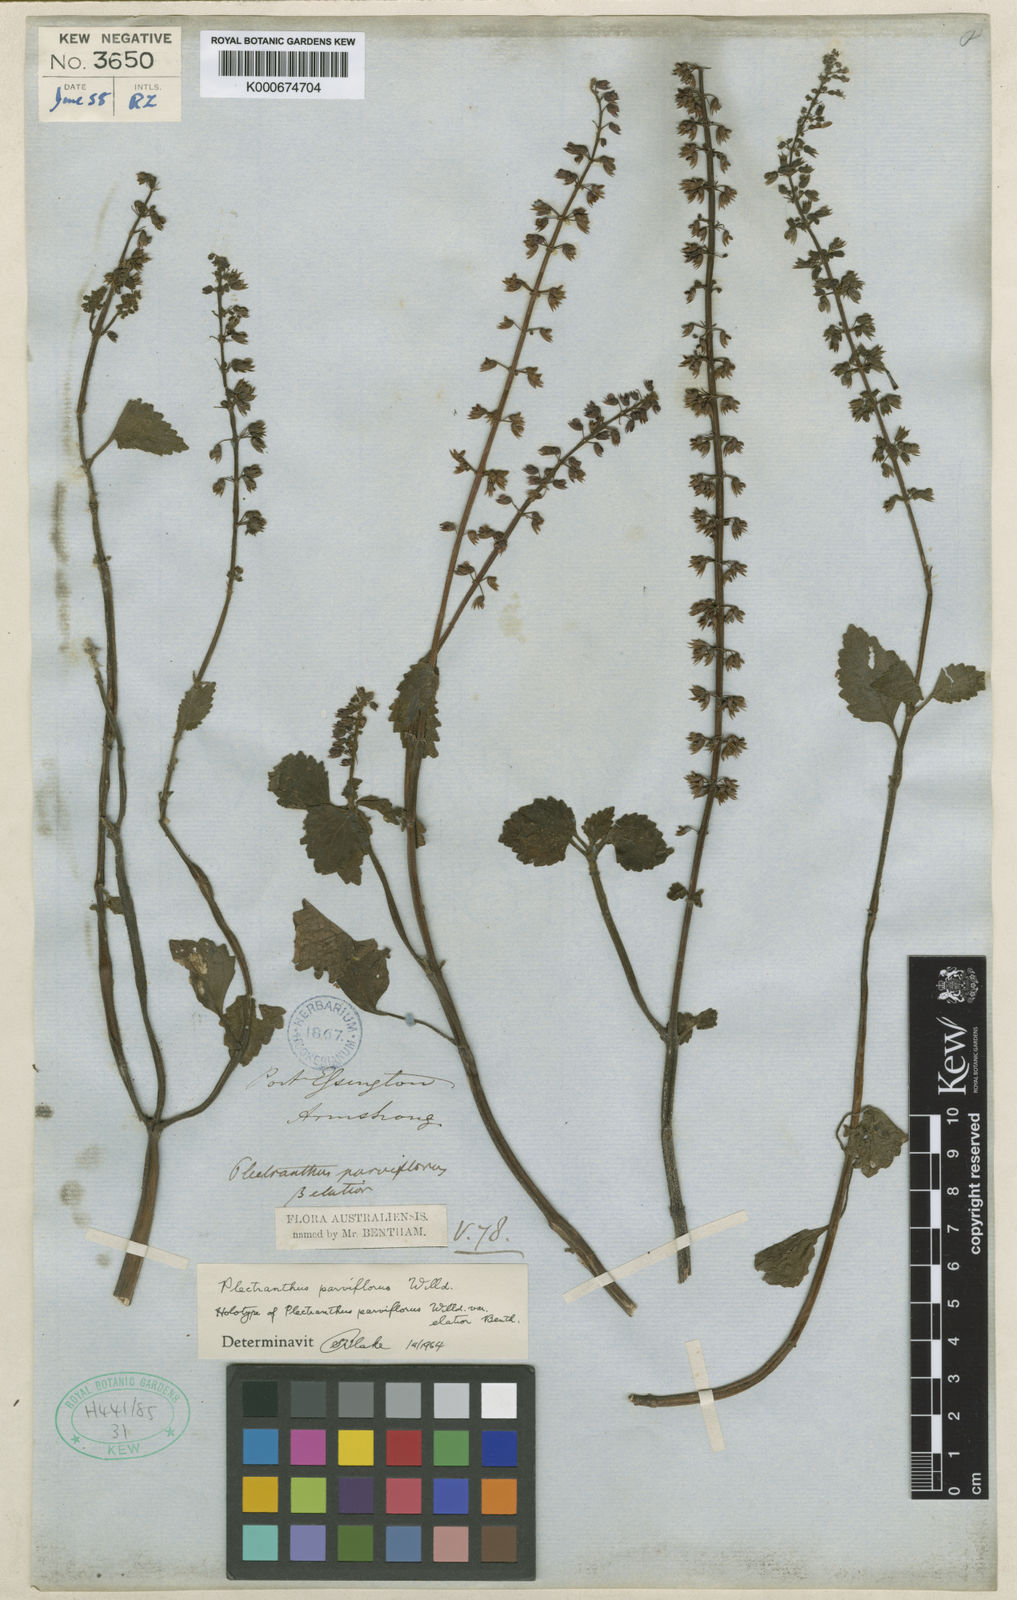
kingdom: Plantae
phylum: Tracheophyta
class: Magnoliopsida
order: Lamiales
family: Lamiaceae
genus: Coleus
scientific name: Coleus australis
